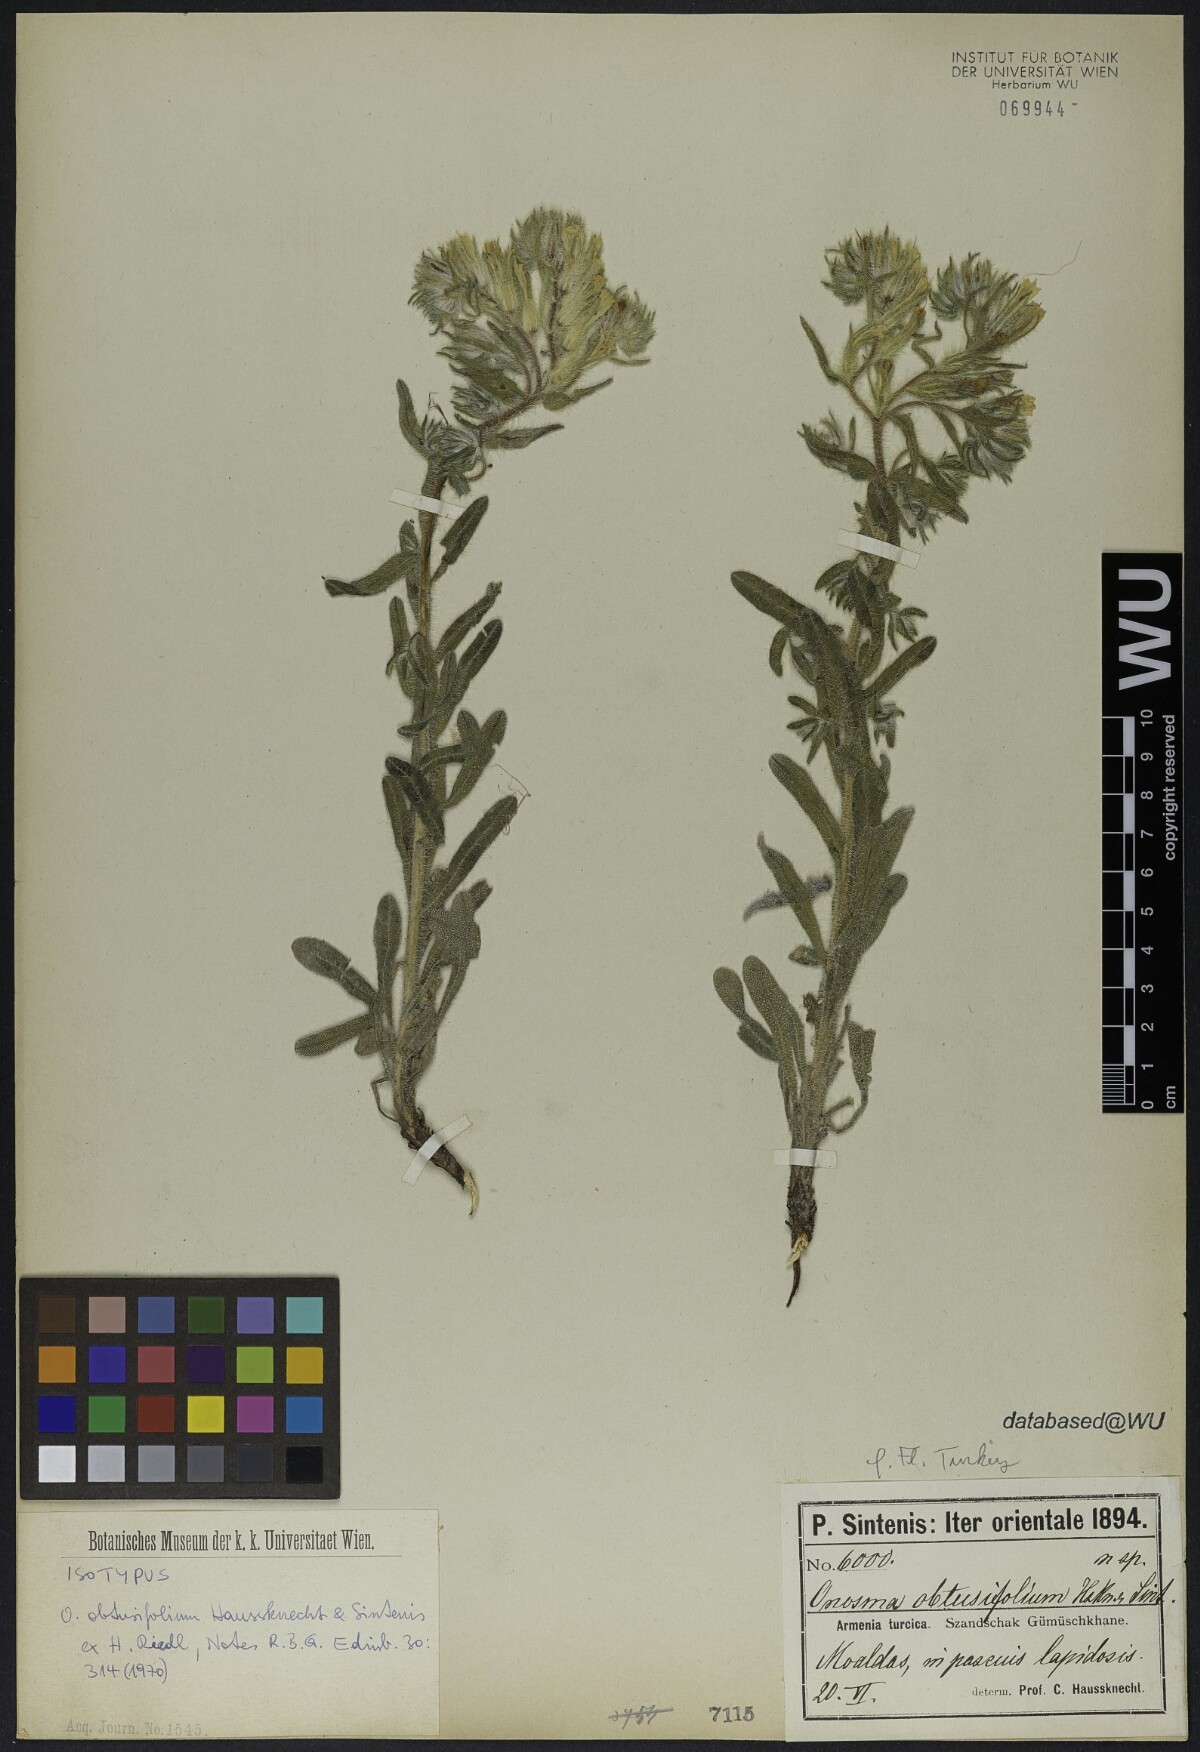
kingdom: Plantae
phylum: Tracheophyta
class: Magnoliopsida
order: Boraginales
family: Boraginaceae
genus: Onosma
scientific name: Onosma obtusifolia
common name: Amblyophyllous goldendrop
